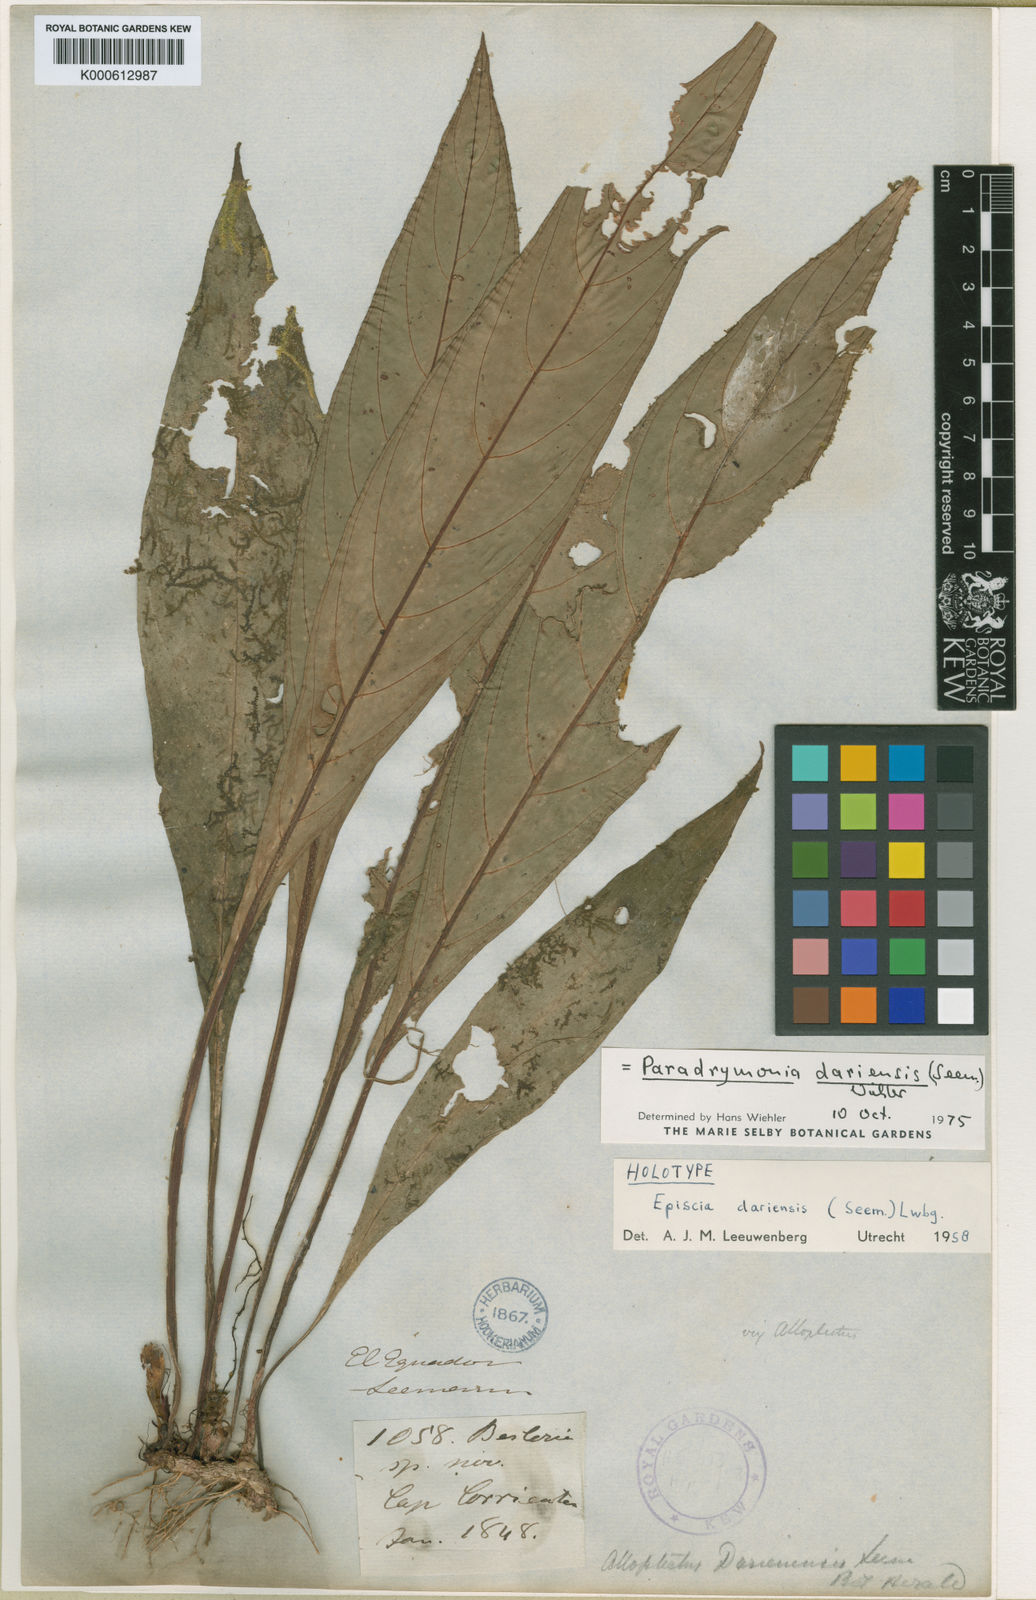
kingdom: Plantae
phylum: Tracheophyta
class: Magnoliopsida
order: Lamiales
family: Gesneriaceae
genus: Paradrymonia
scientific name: Paradrymonia
